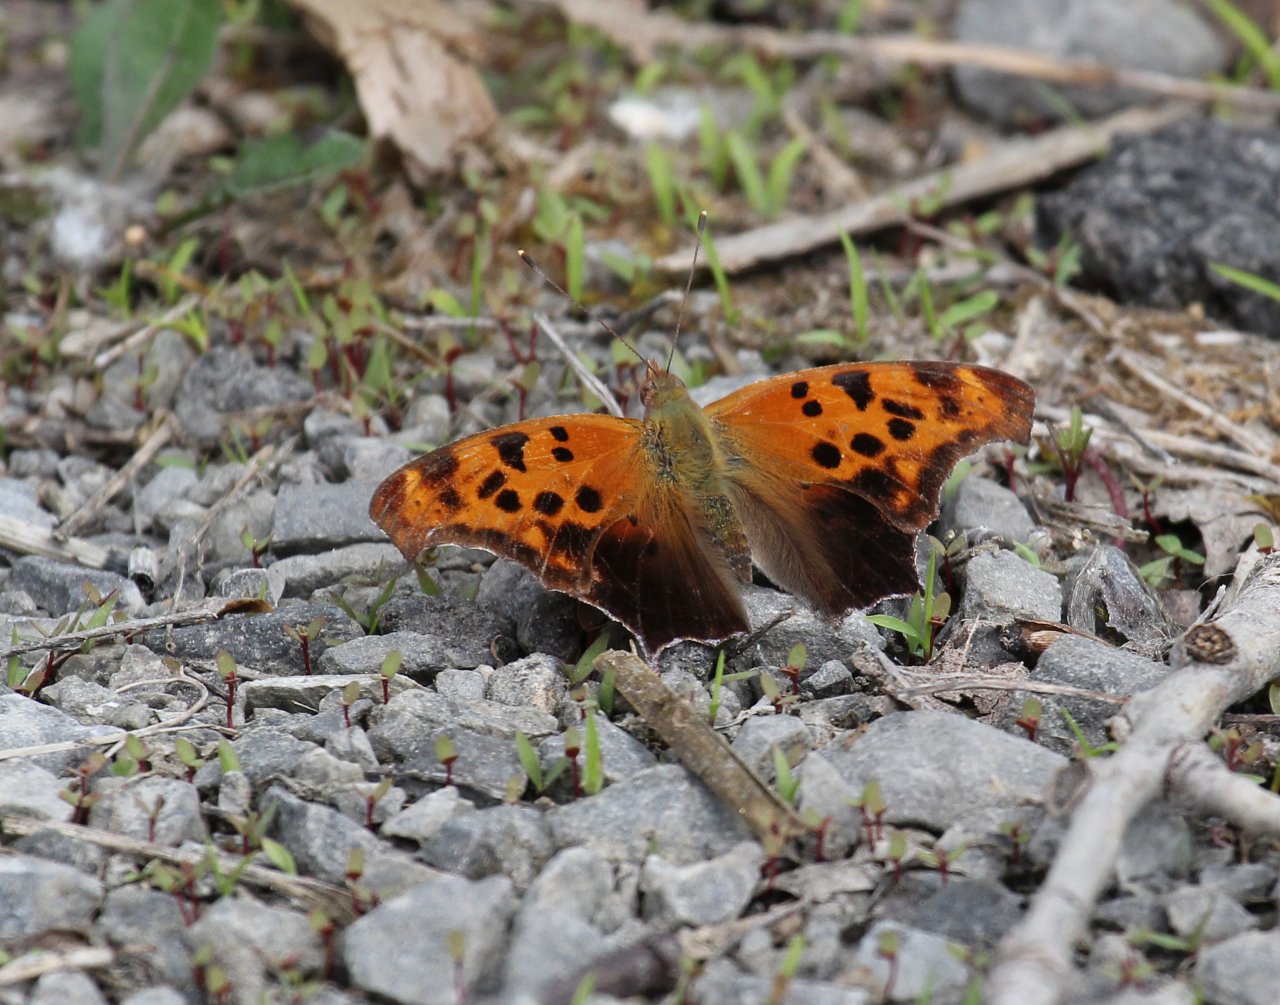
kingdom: Animalia
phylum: Arthropoda
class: Insecta
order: Lepidoptera
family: Nymphalidae
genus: Polygonia
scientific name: Polygonia interrogationis
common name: Question Mark
